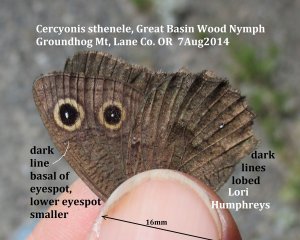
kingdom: Animalia
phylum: Arthropoda
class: Insecta
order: Lepidoptera
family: Nymphalidae
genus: Cercyonis
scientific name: Cercyonis sthenele
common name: Great Basin Wood-Nymph
